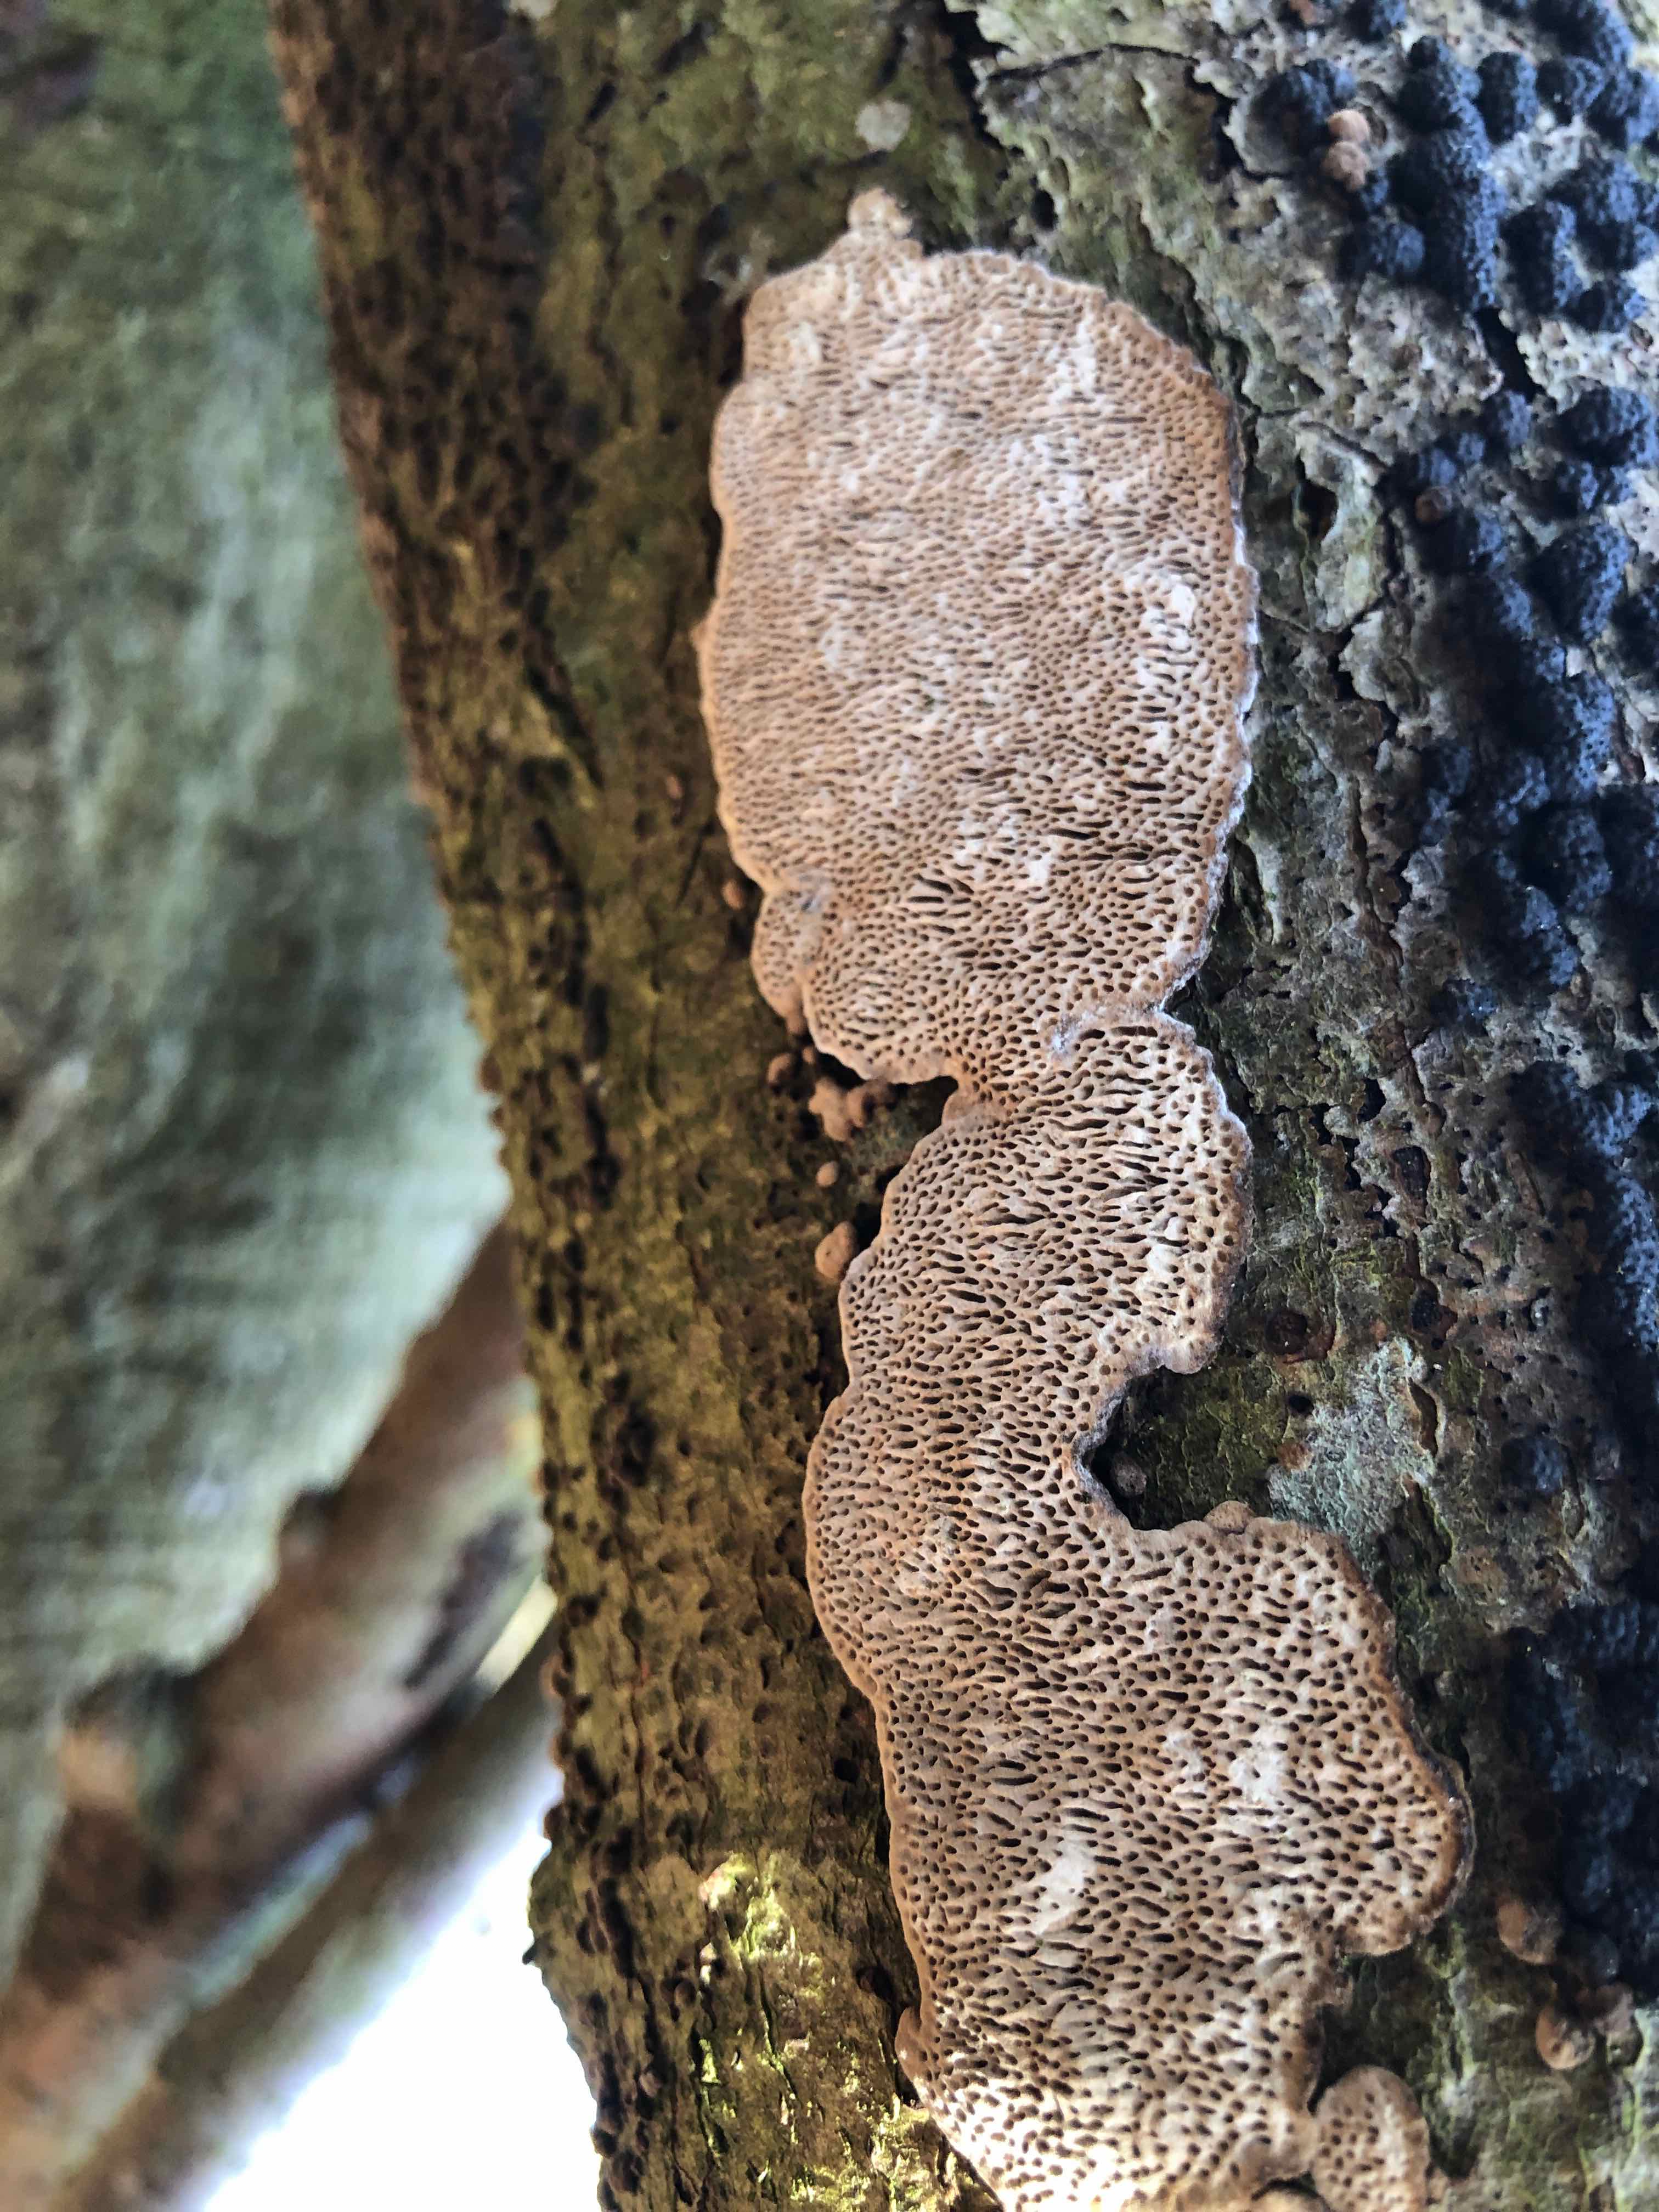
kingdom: Fungi
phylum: Basidiomycota
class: Agaricomycetes
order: Polyporales
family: Polyporaceae
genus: Podofomes
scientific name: Podofomes mollis
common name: blød begporesvamp
